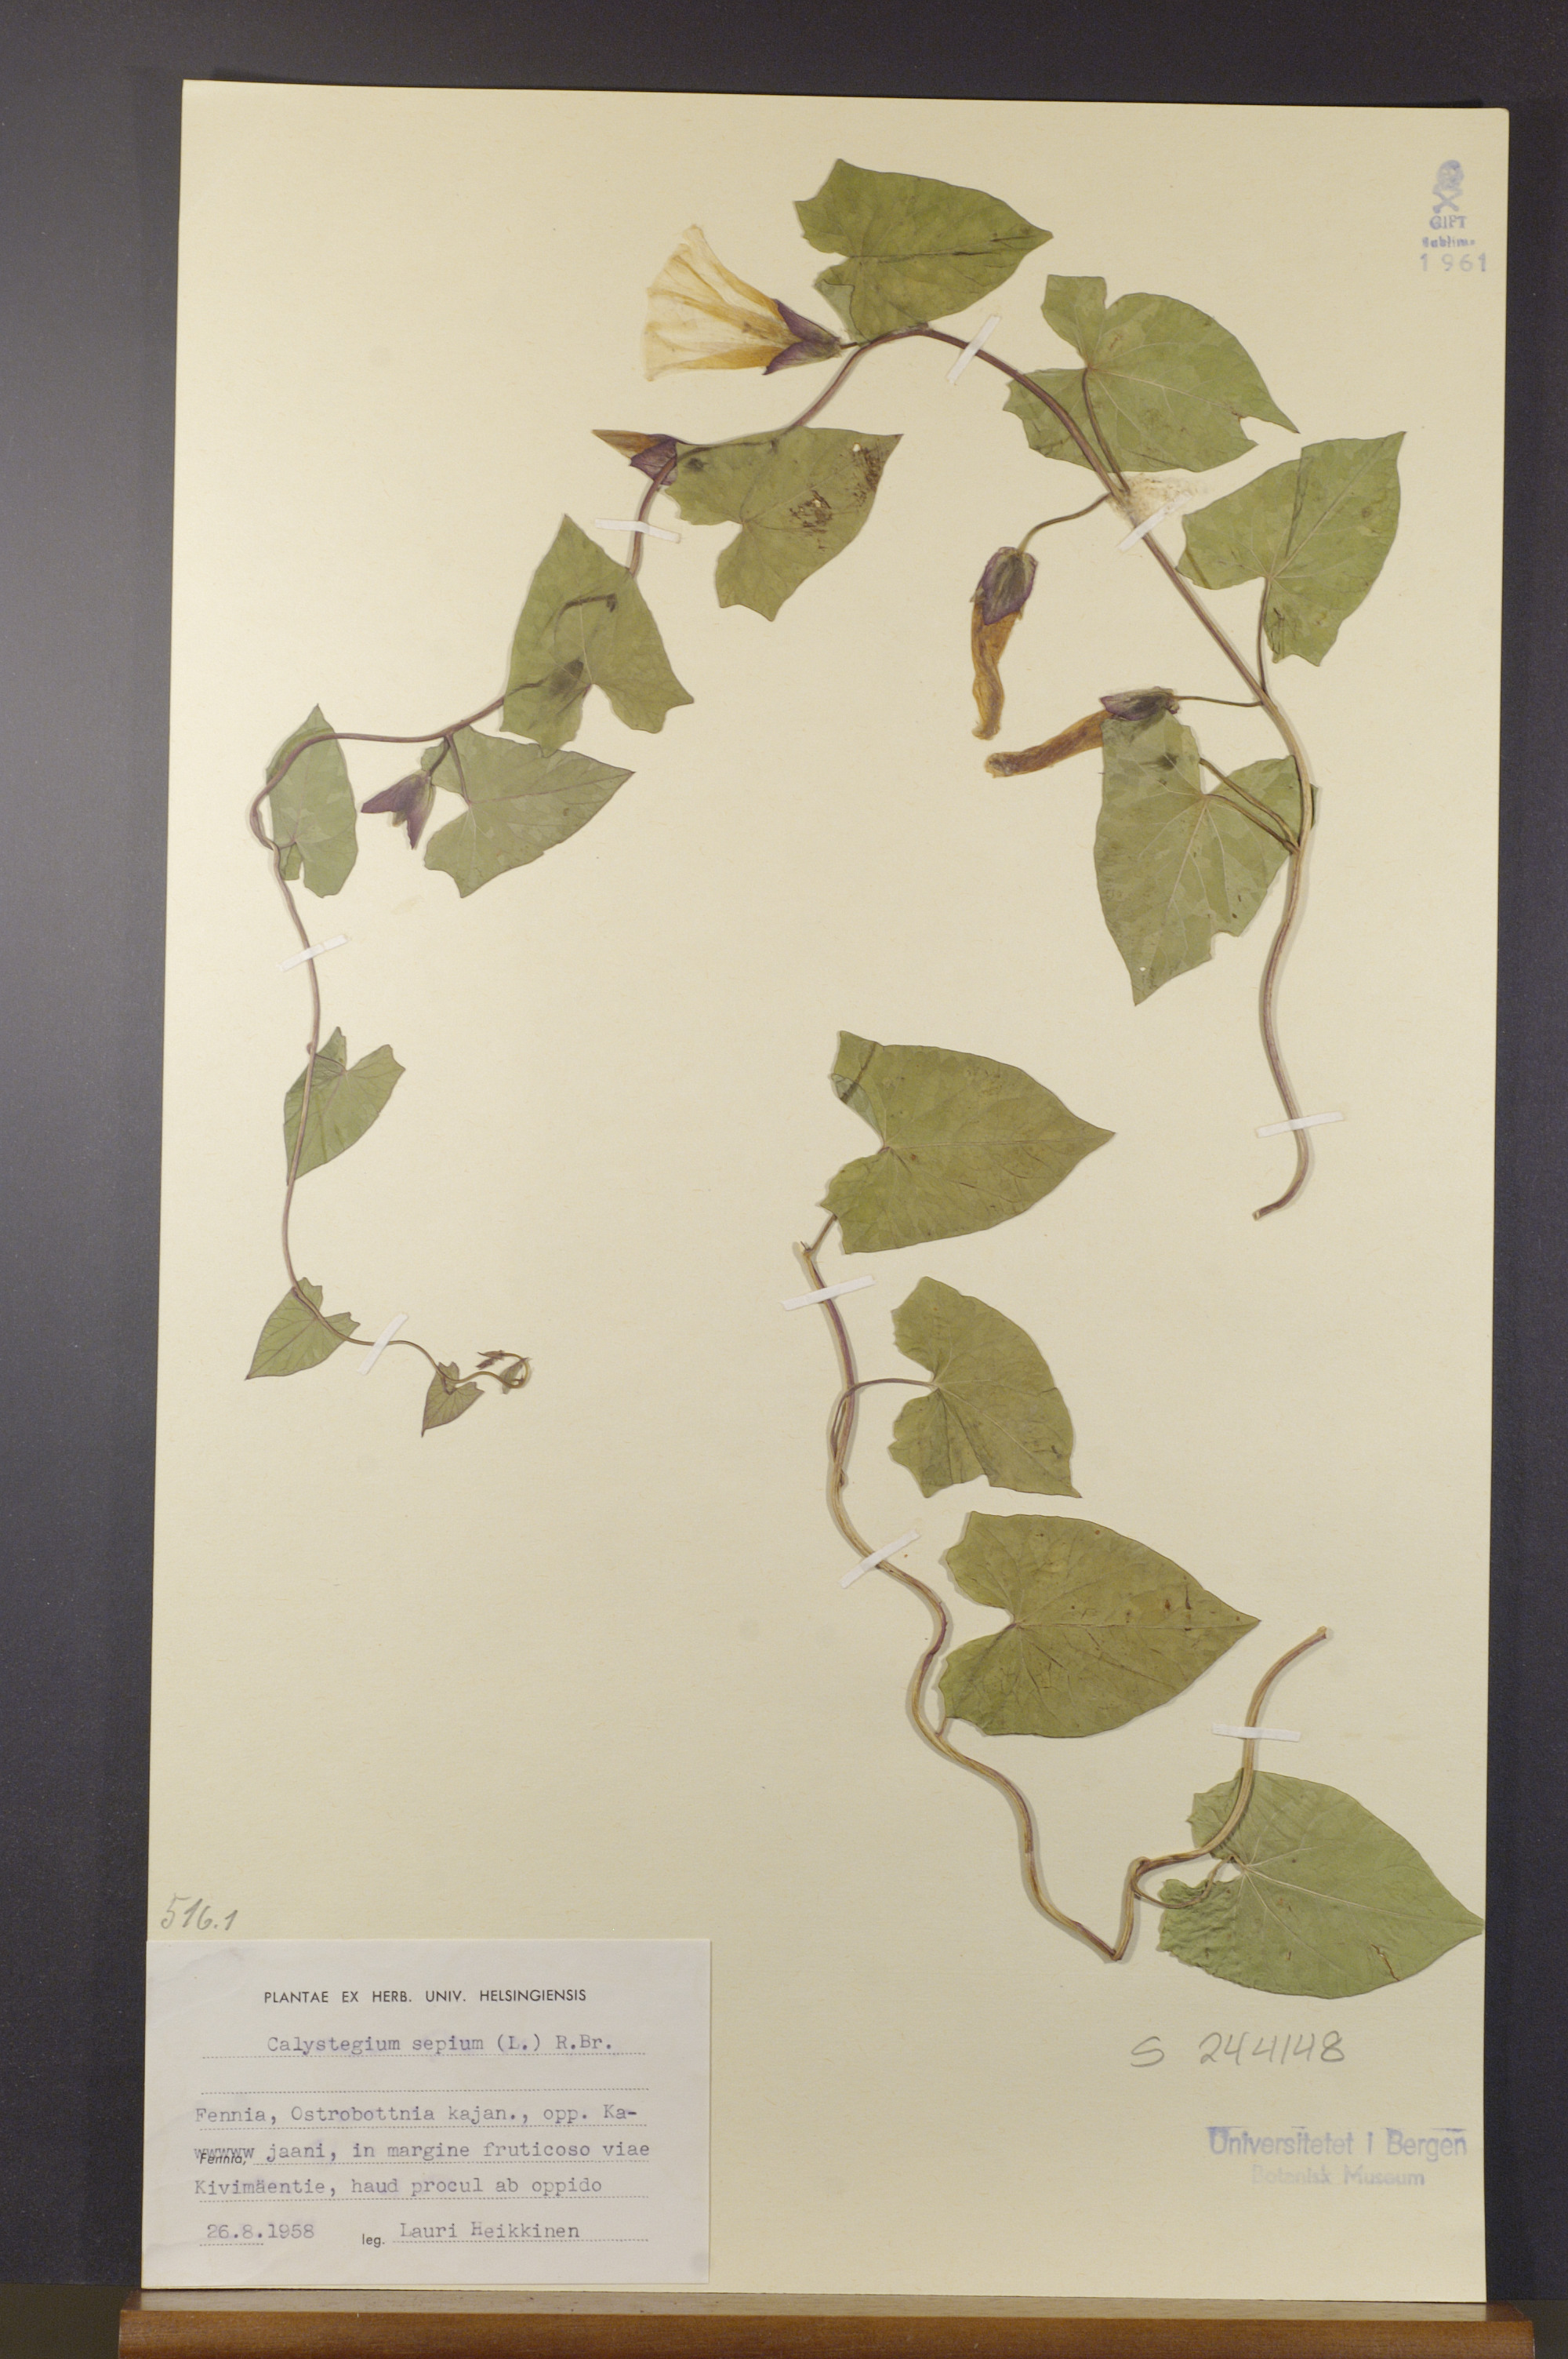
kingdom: Plantae
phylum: Tracheophyta
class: Magnoliopsida
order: Solanales
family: Convolvulaceae
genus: Calystegia
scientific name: Calystegia sepium
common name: Hedge bindweed
